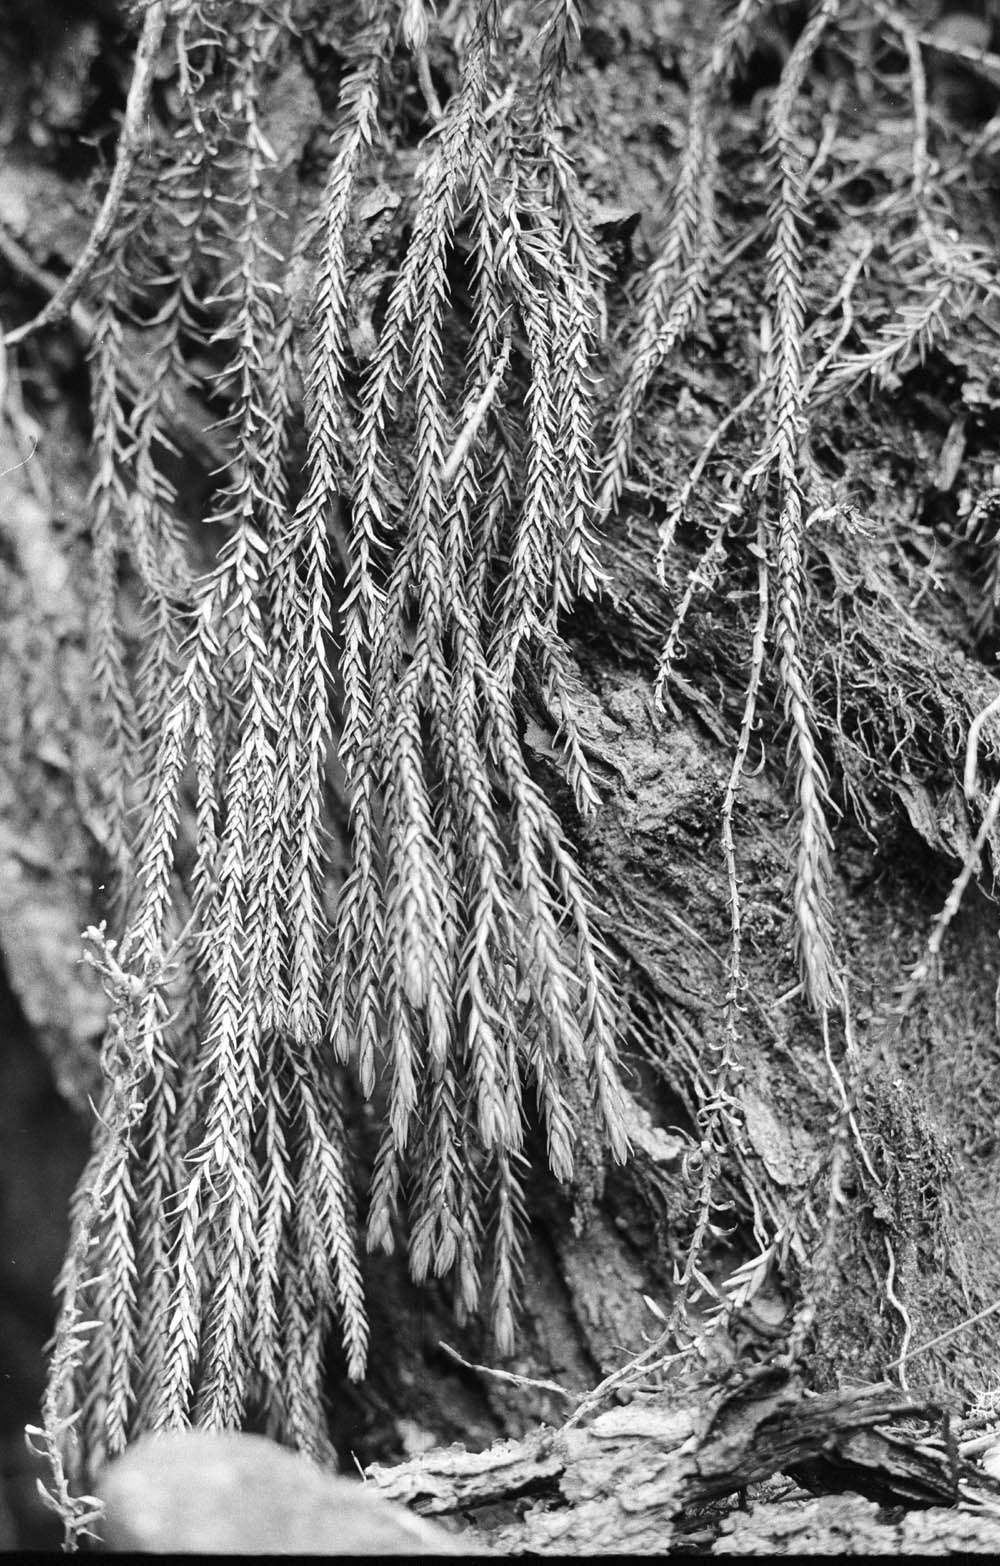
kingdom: Plantae
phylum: Tracheophyta
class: Lycopodiopsida
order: Lycopodiales
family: Lycopodiaceae
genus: Phlegmariurus
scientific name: Phlegmariurus lindenii
